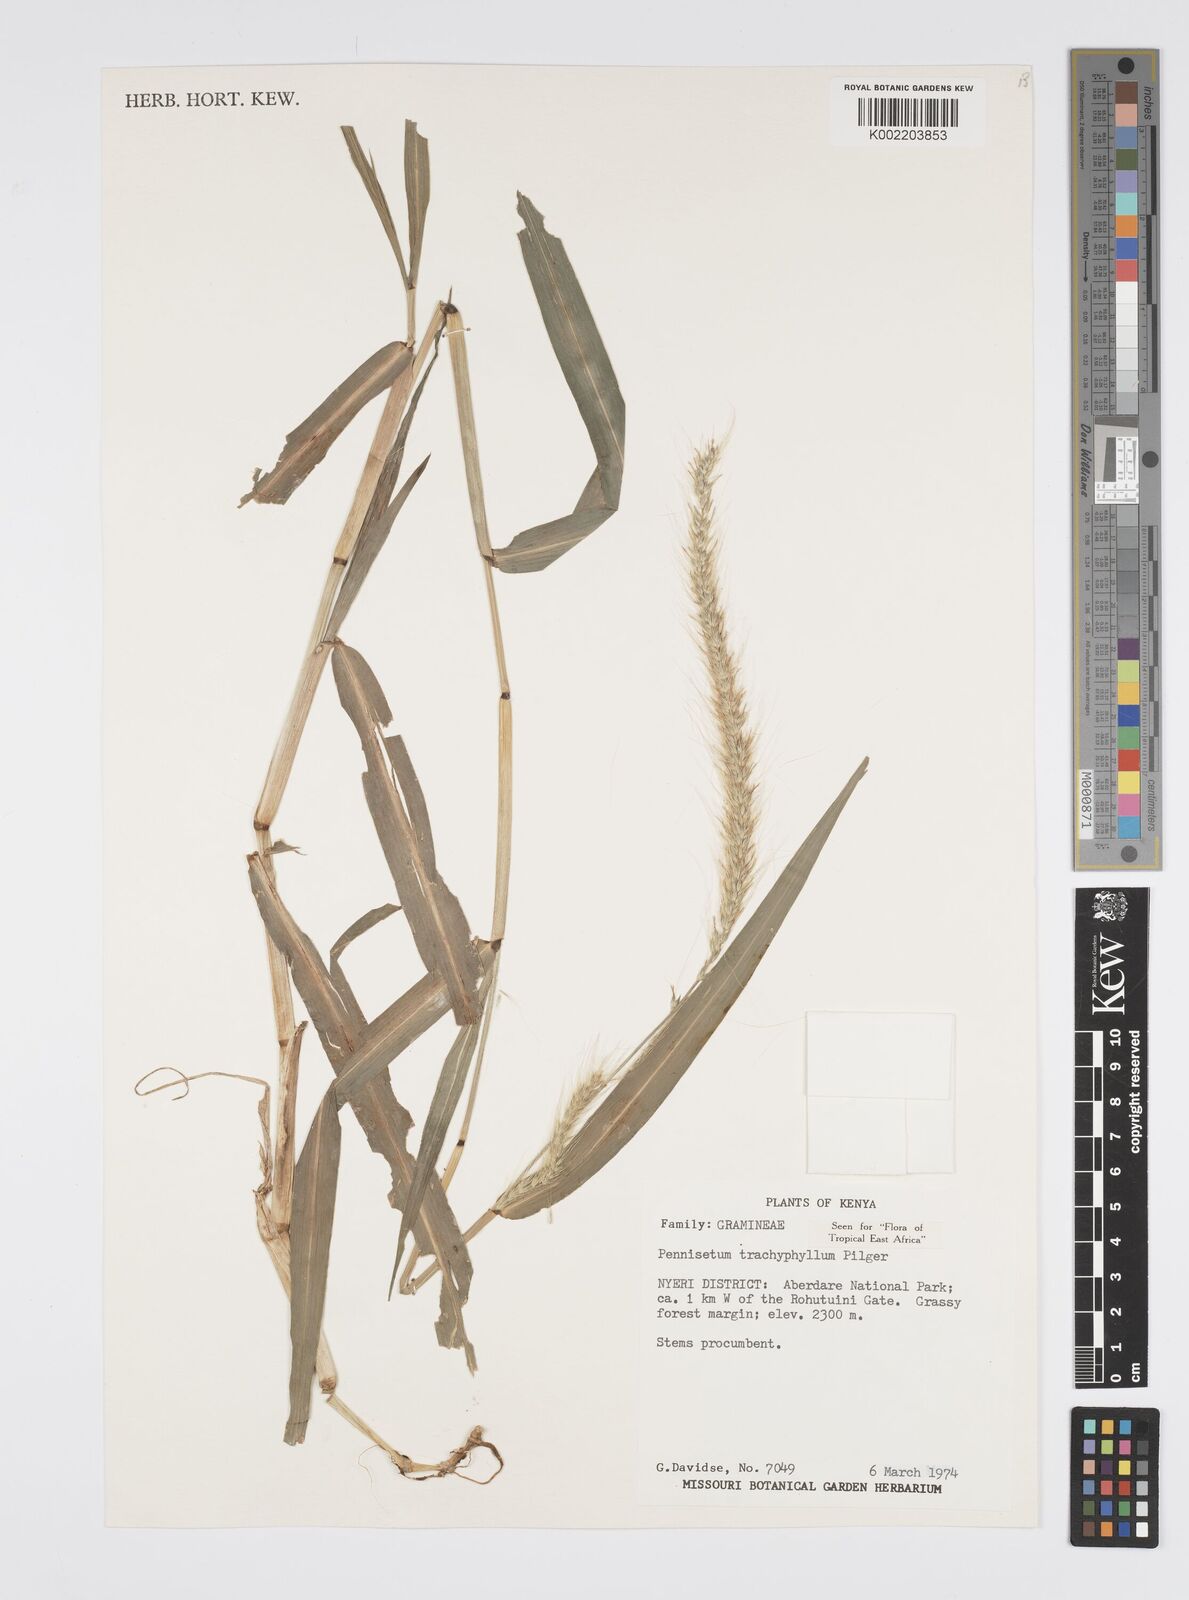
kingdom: Plantae
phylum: Tracheophyta
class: Liliopsida
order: Poales
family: Poaceae
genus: Cenchrus
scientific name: Cenchrus trachyphyllus
